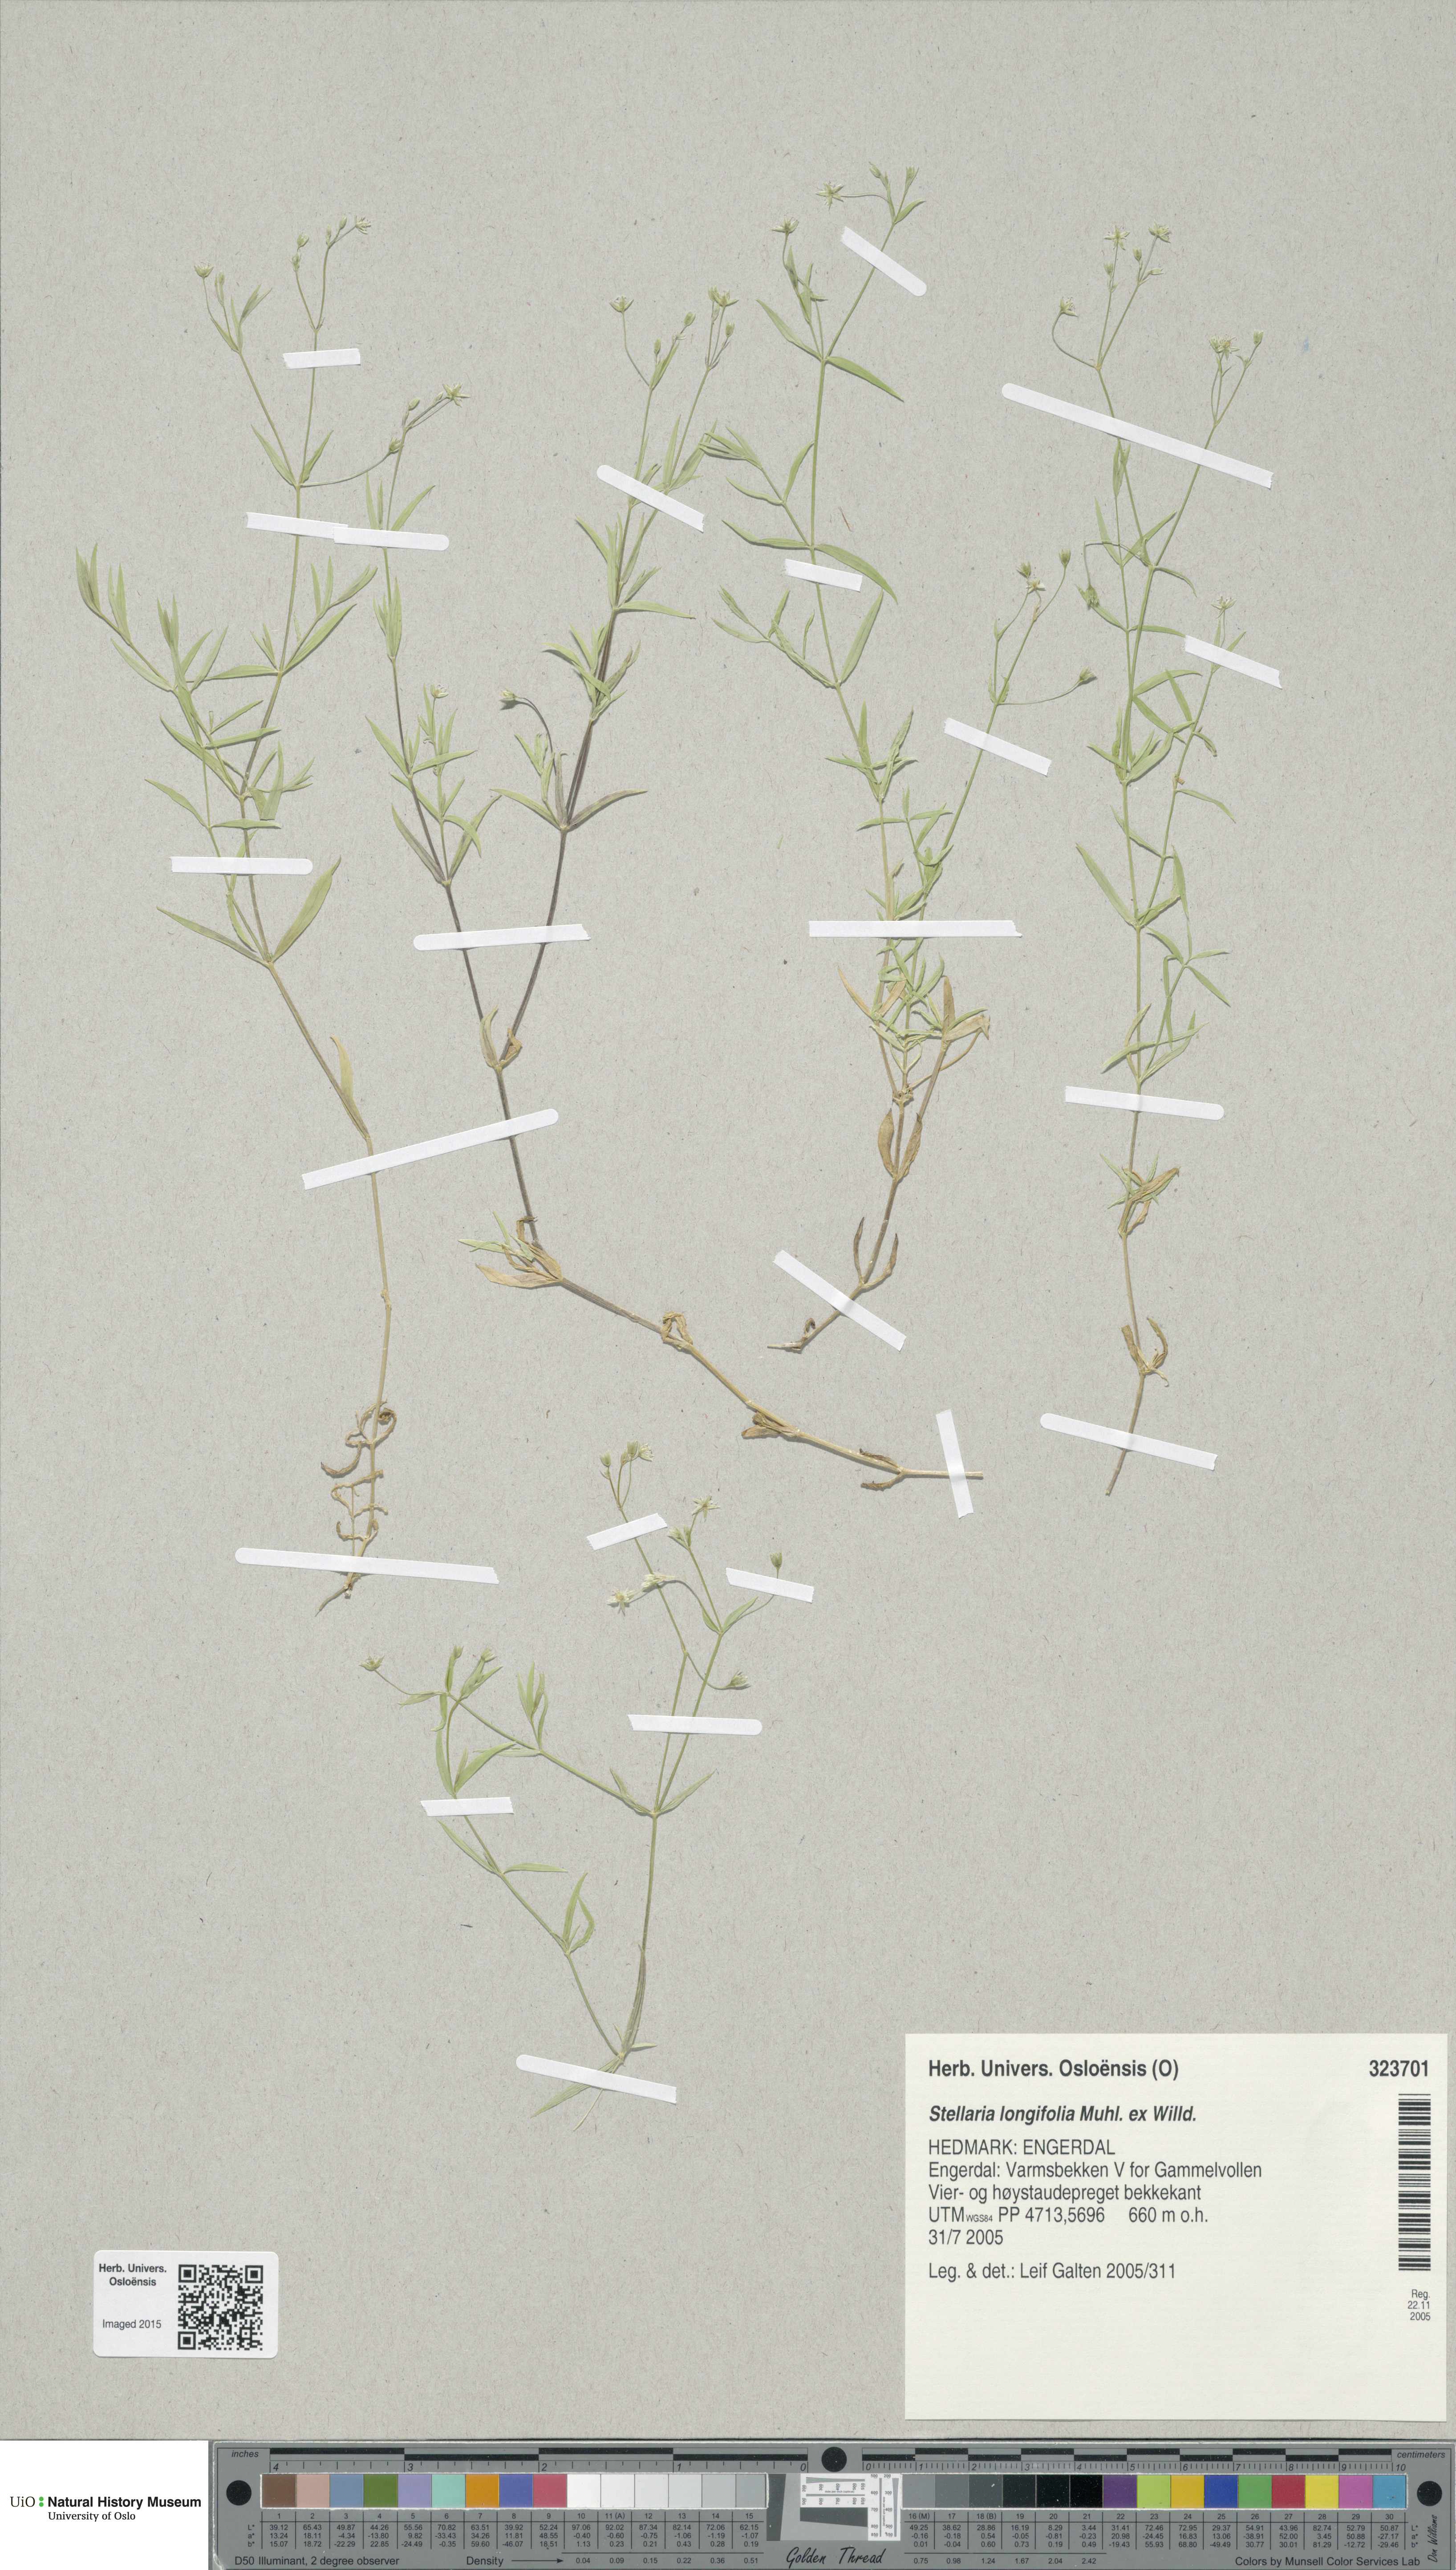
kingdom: Plantae
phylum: Tracheophyta
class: Magnoliopsida
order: Caryophyllales
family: Caryophyllaceae
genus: Stellaria
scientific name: Stellaria longifolia
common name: Long-leaved chickweed
